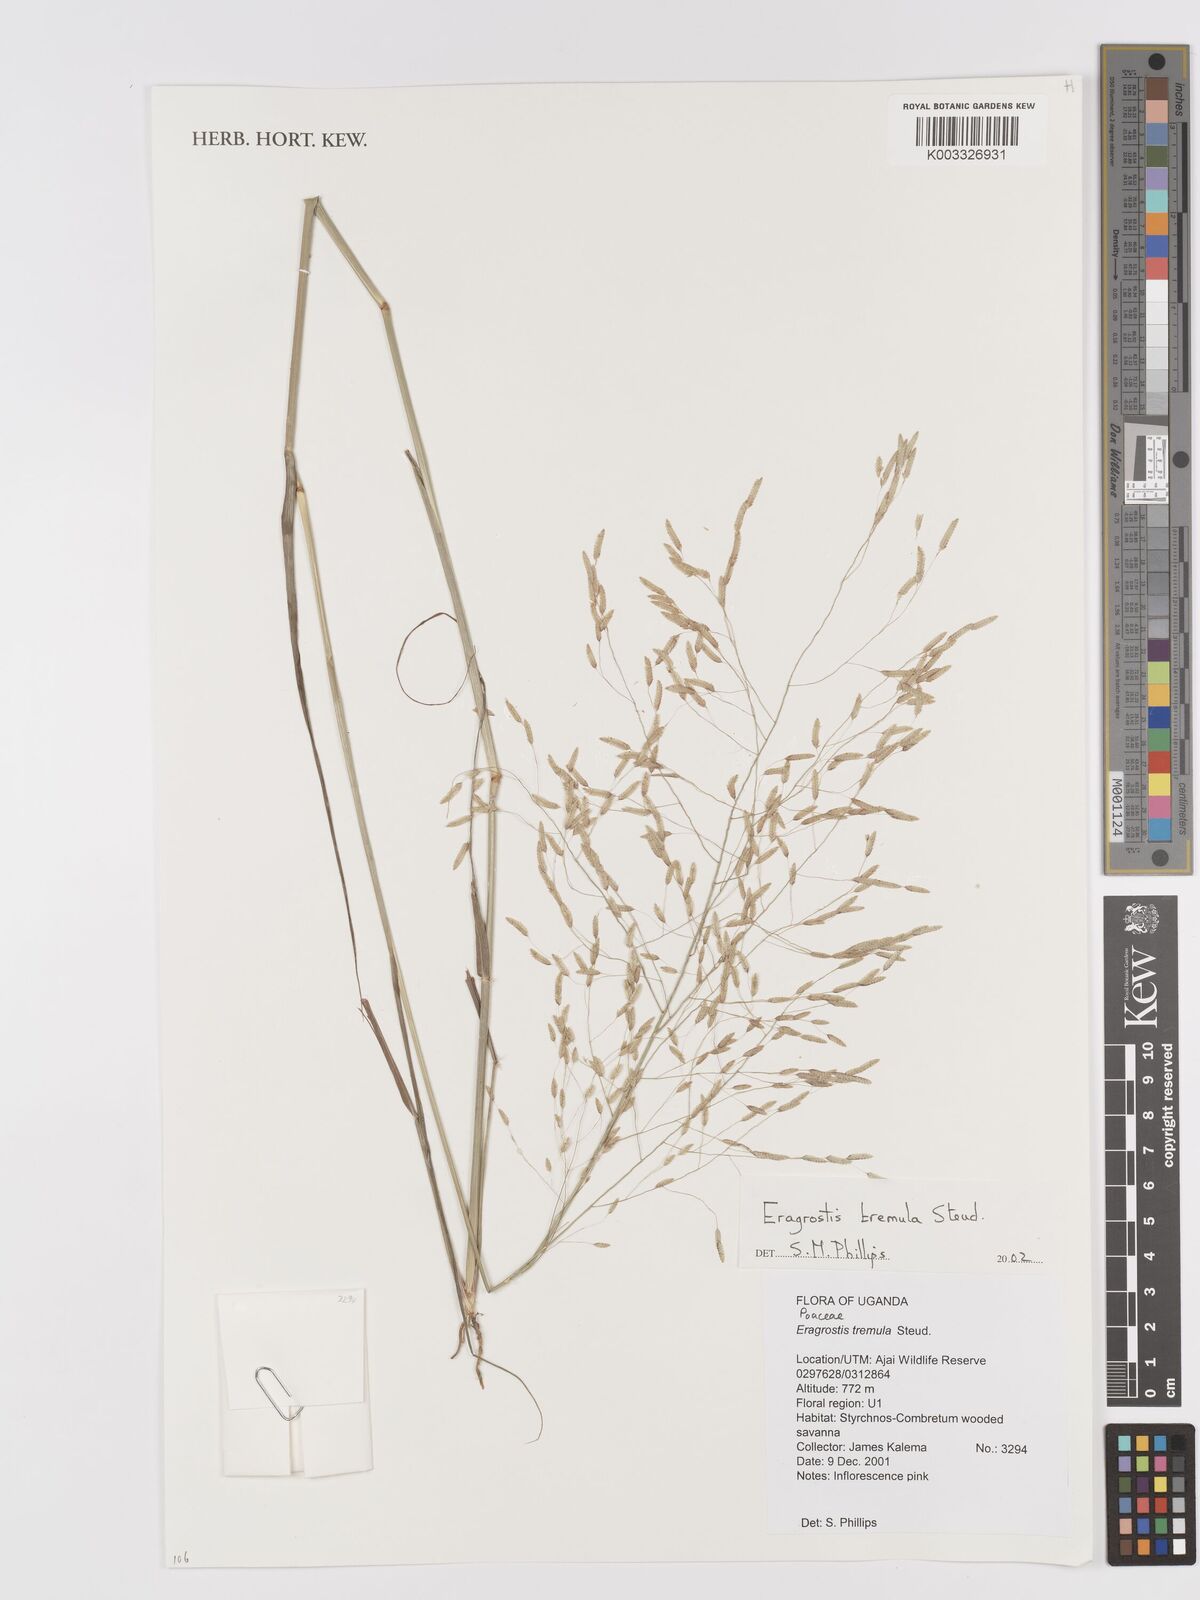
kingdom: Plantae
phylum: Tracheophyta
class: Liliopsida
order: Poales
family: Poaceae
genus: Eragrostis
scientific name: Eragrostis tremula
